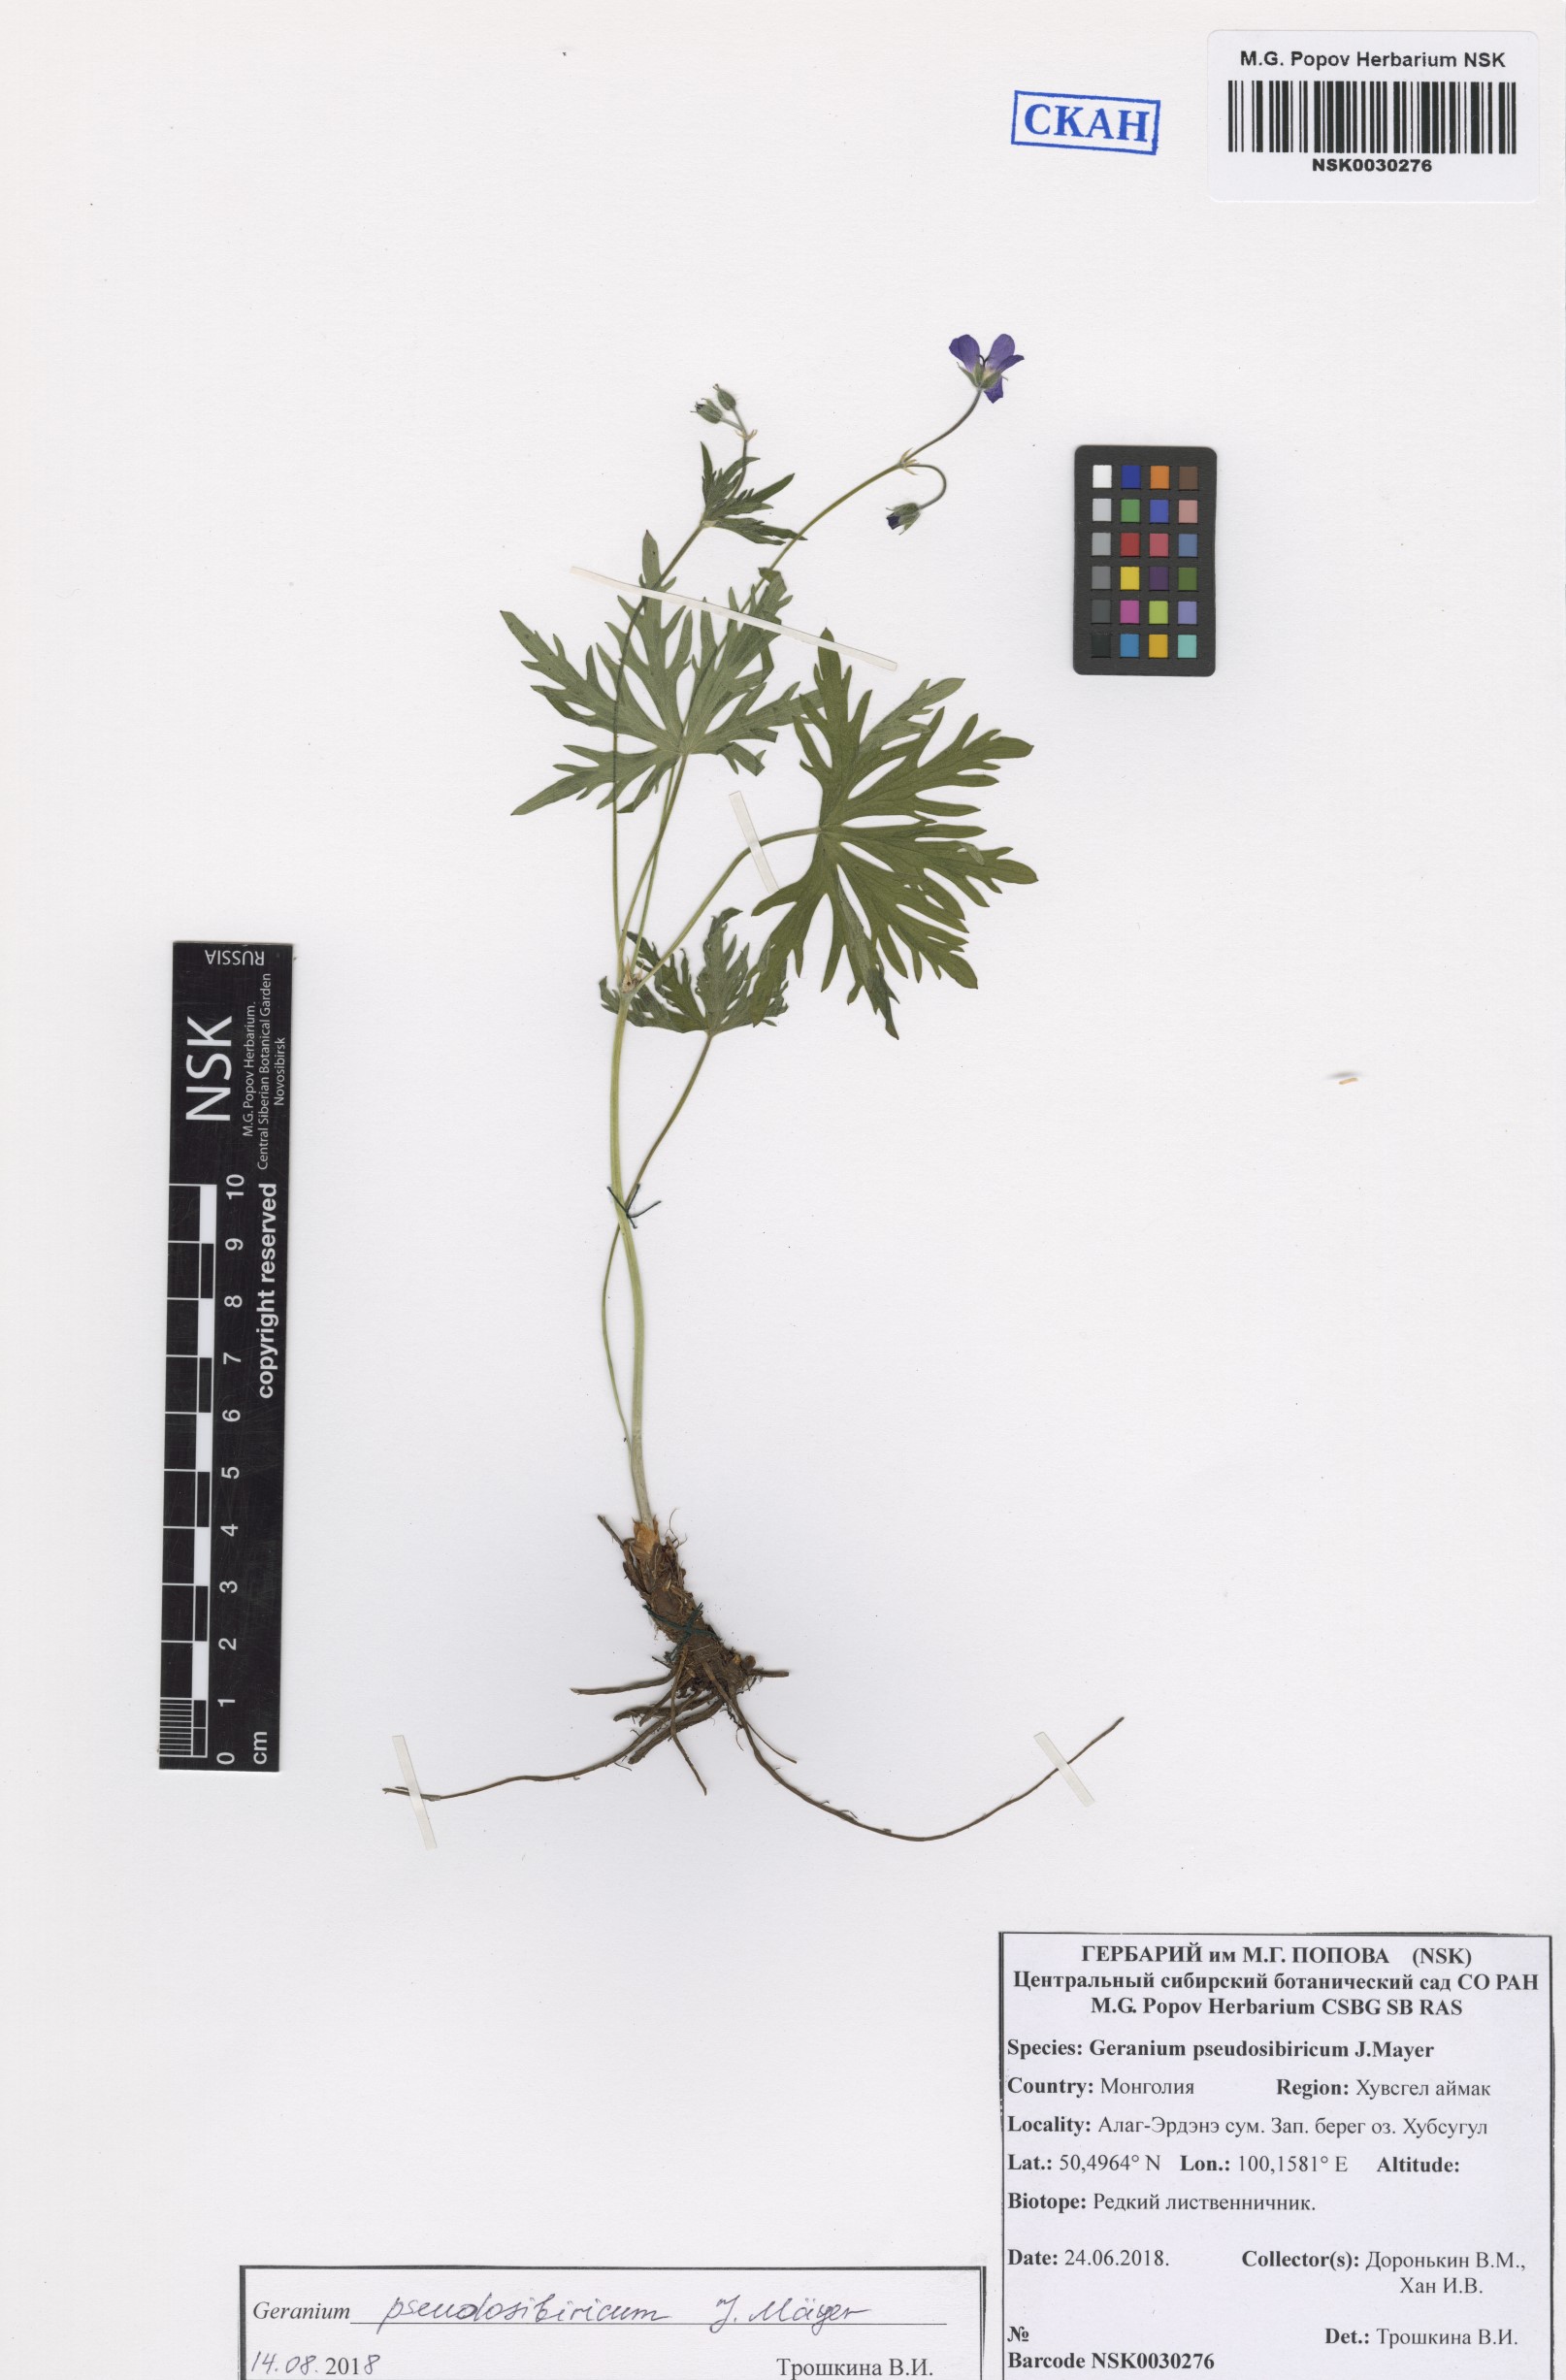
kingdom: Plantae
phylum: Tracheophyta
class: Magnoliopsida
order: Geraniales
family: Geraniaceae
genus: Geranium
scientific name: Geranium pseudosibiricum
